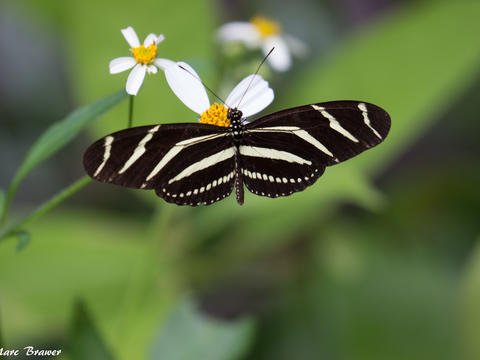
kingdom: Animalia
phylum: Arthropoda
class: Insecta
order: Lepidoptera
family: Nymphalidae
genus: Heliconius
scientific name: Heliconius charithonia
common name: Zebra Longwing
